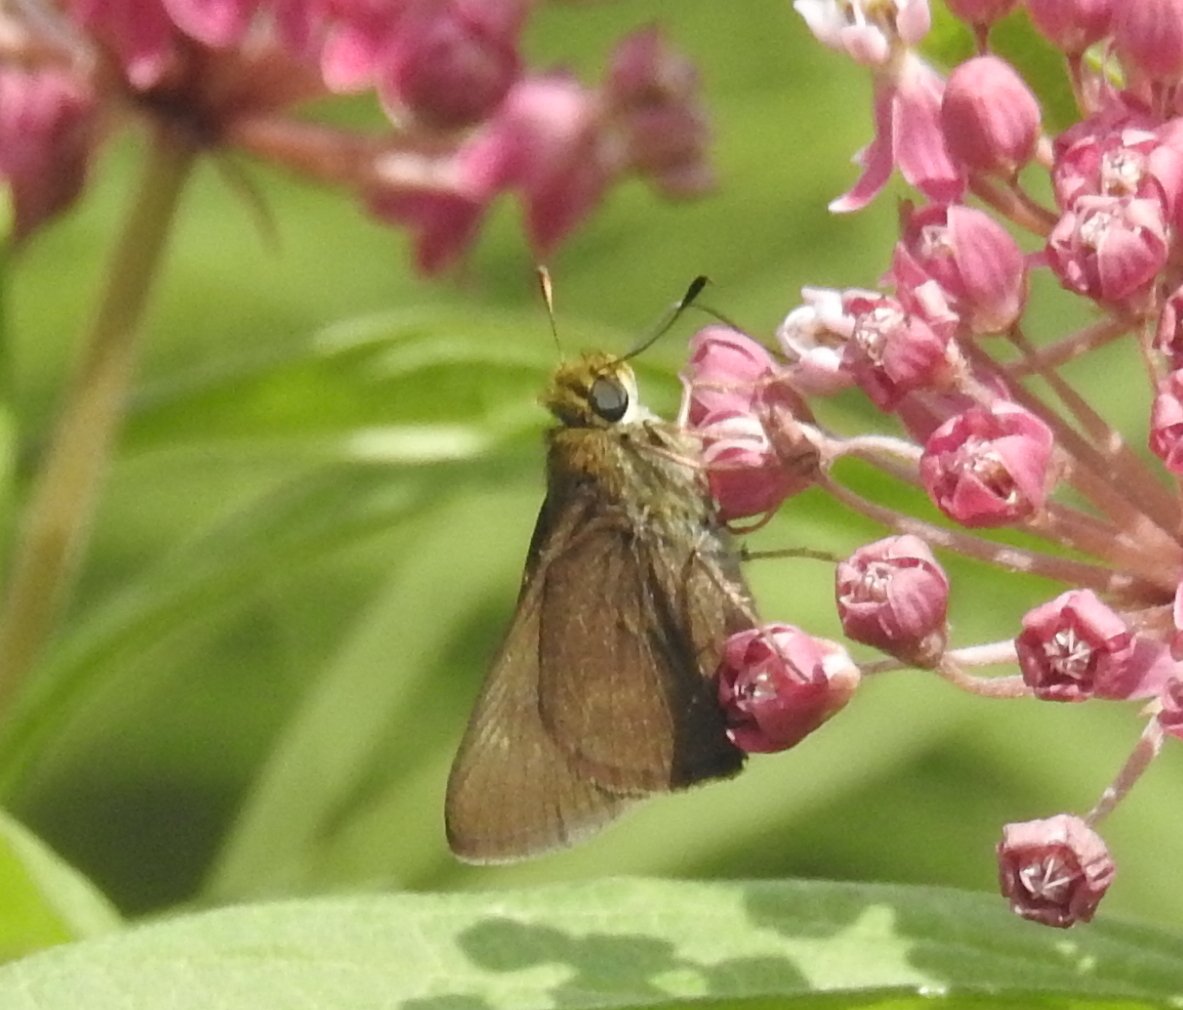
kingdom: Animalia
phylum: Arthropoda
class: Insecta
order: Lepidoptera
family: Hesperiidae
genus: Euphyes
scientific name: Euphyes vestris
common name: Dun Skipper
